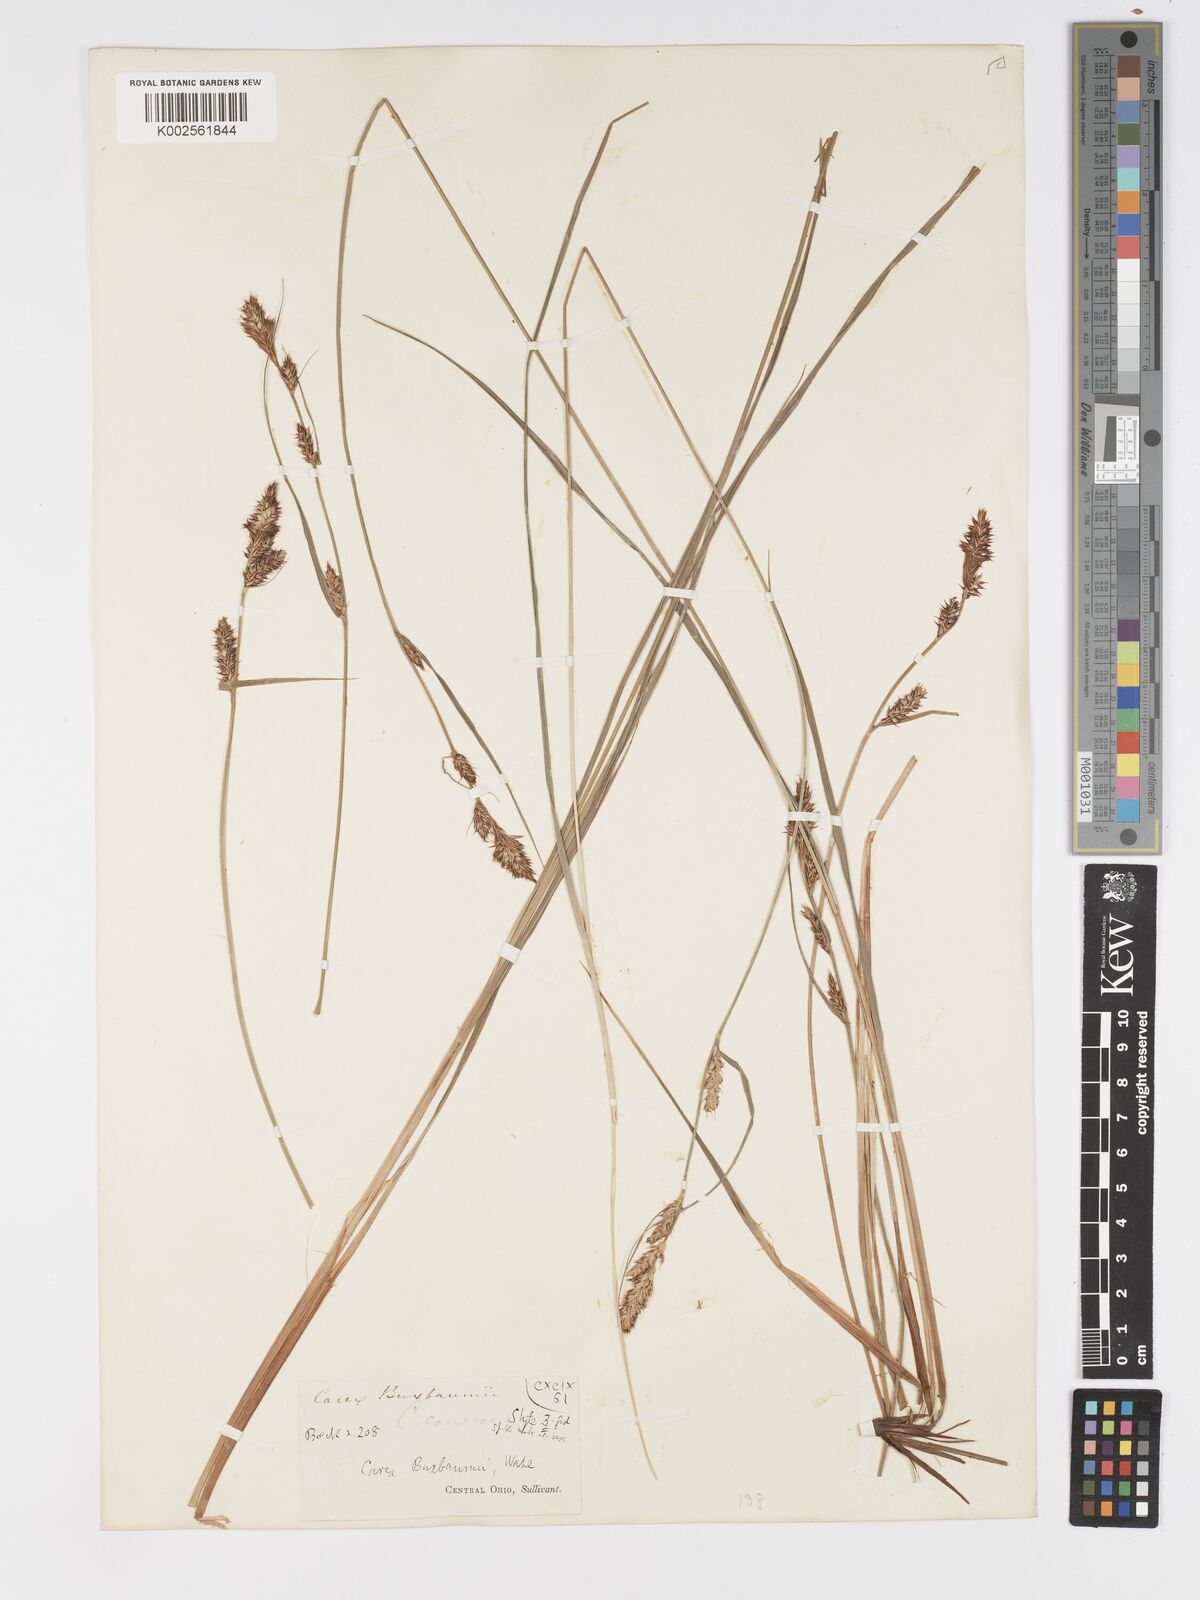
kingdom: Plantae
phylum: Tracheophyta
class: Liliopsida
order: Poales
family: Cyperaceae
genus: Carex
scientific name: Carex buxbaumii
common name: Club sedge
